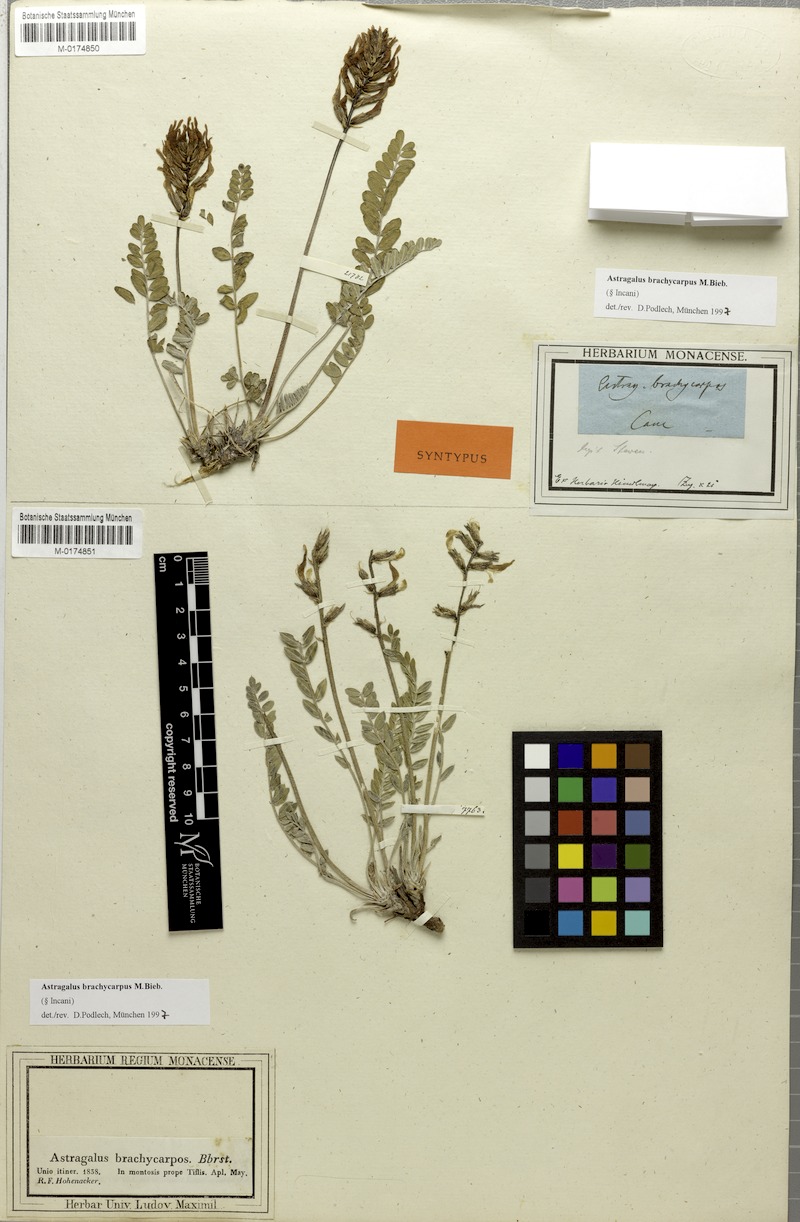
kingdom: Plantae
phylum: Tracheophyta
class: Magnoliopsida
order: Fabales
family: Fabaceae
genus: Astragalus
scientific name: Astragalus brachycarpus
